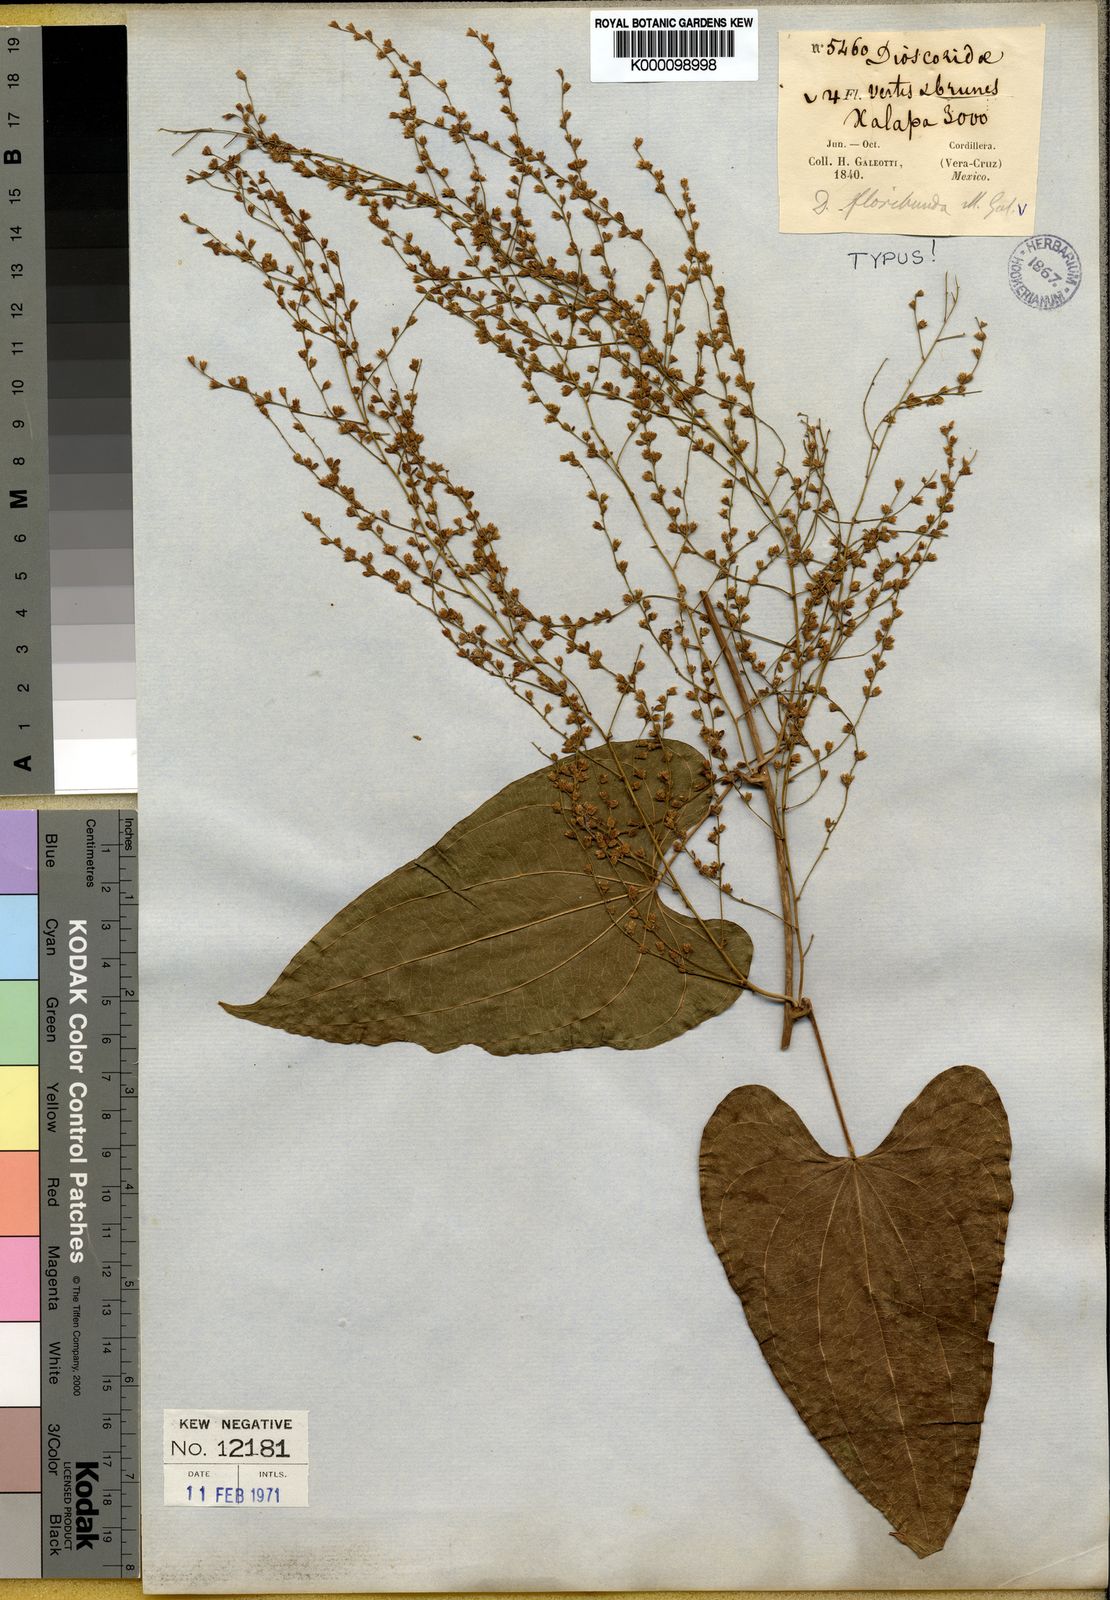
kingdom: Plantae
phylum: Tracheophyta
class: Liliopsida
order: Dioscoreales
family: Dioscoreaceae
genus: Dioscorea
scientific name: Dioscorea floribunda
